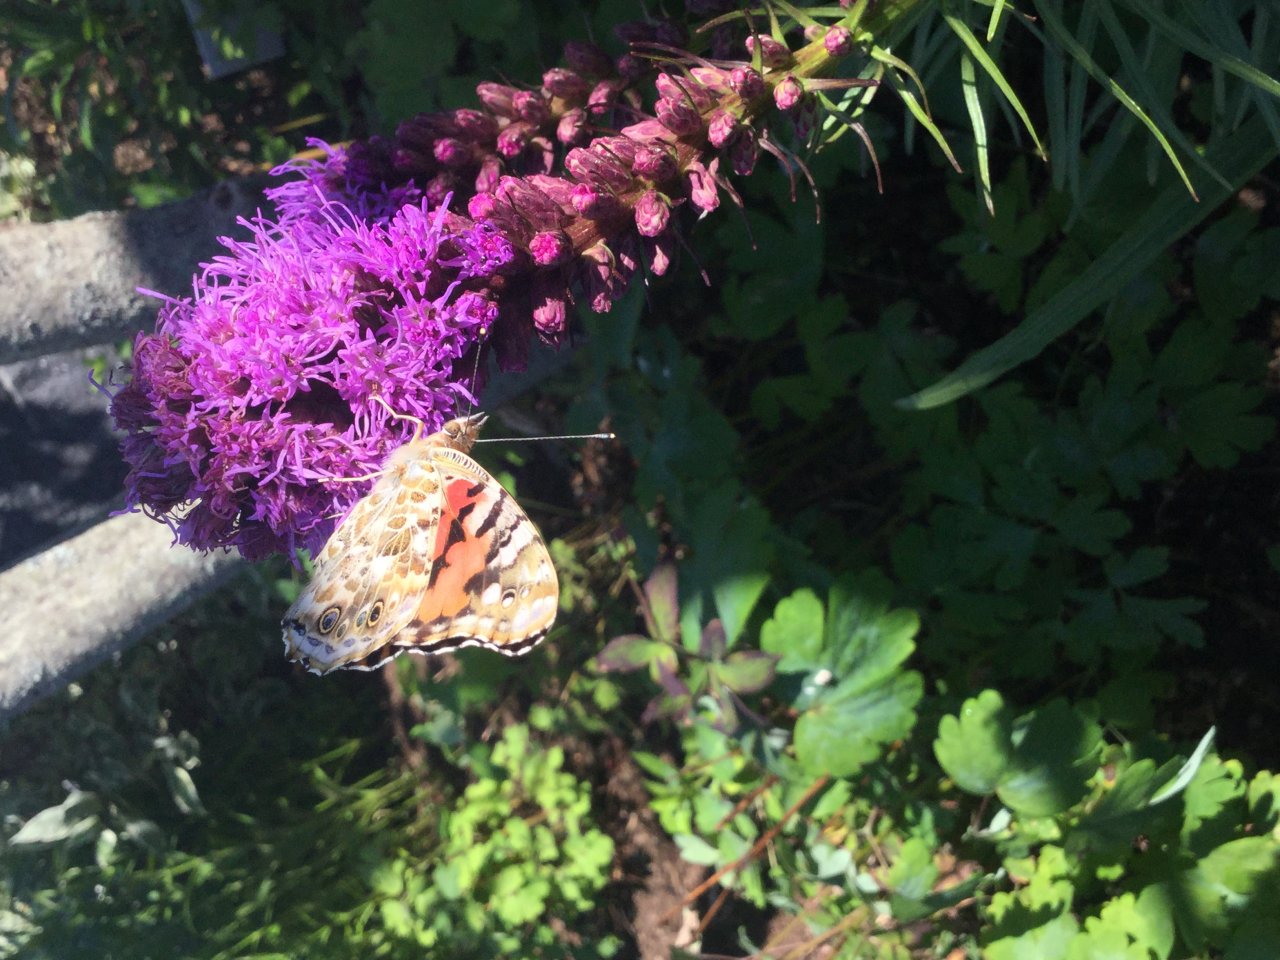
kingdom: Animalia
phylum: Arthropoda
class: Insecta
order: Lepidoptera
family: Nymphalidae
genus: Vanessa
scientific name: Vanessa cardui
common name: Painted Lady
